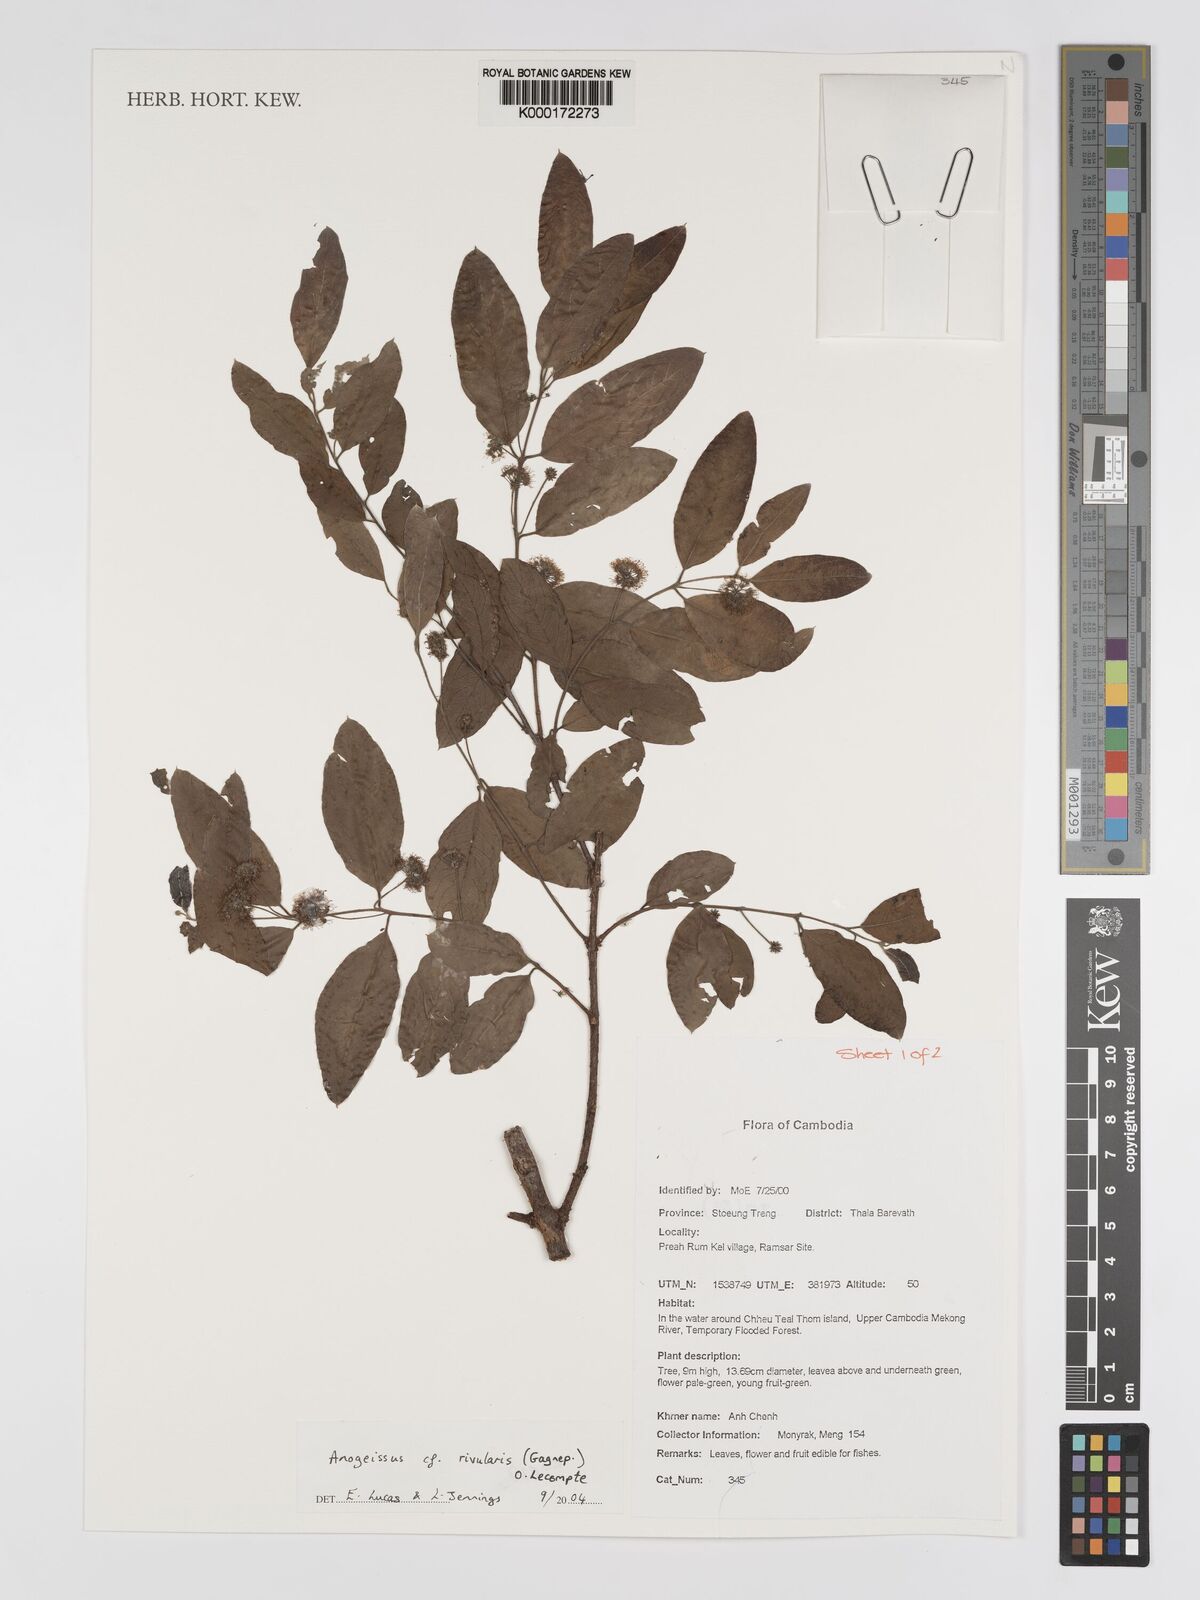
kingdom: Plantae
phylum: Tracheophyta
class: Magnoliopsida
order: Myrtales
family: Combretaceae
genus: Terminalia
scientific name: Terminalia rivularis
